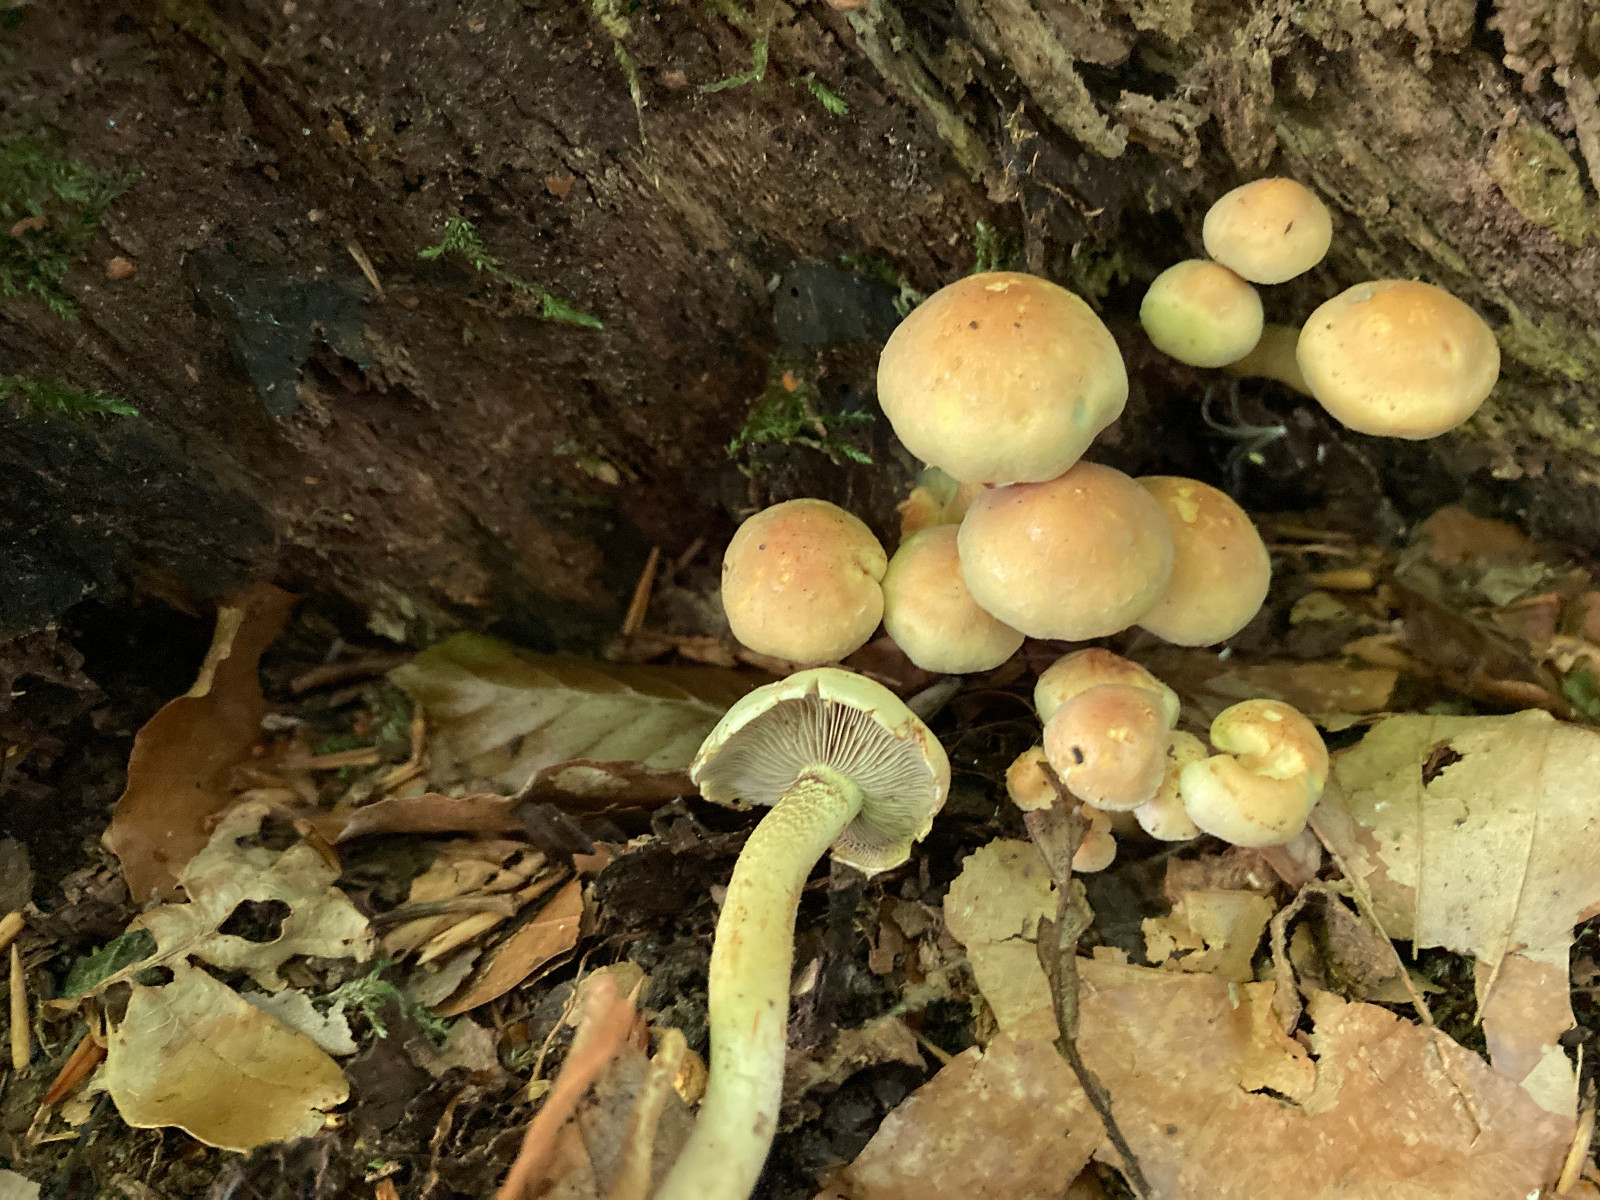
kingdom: Fungi
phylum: Basidiomycota
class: Agaricomycetes
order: Agaricales
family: Strophariaceae
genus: Hypholoma
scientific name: Hypholoma fasciculare
